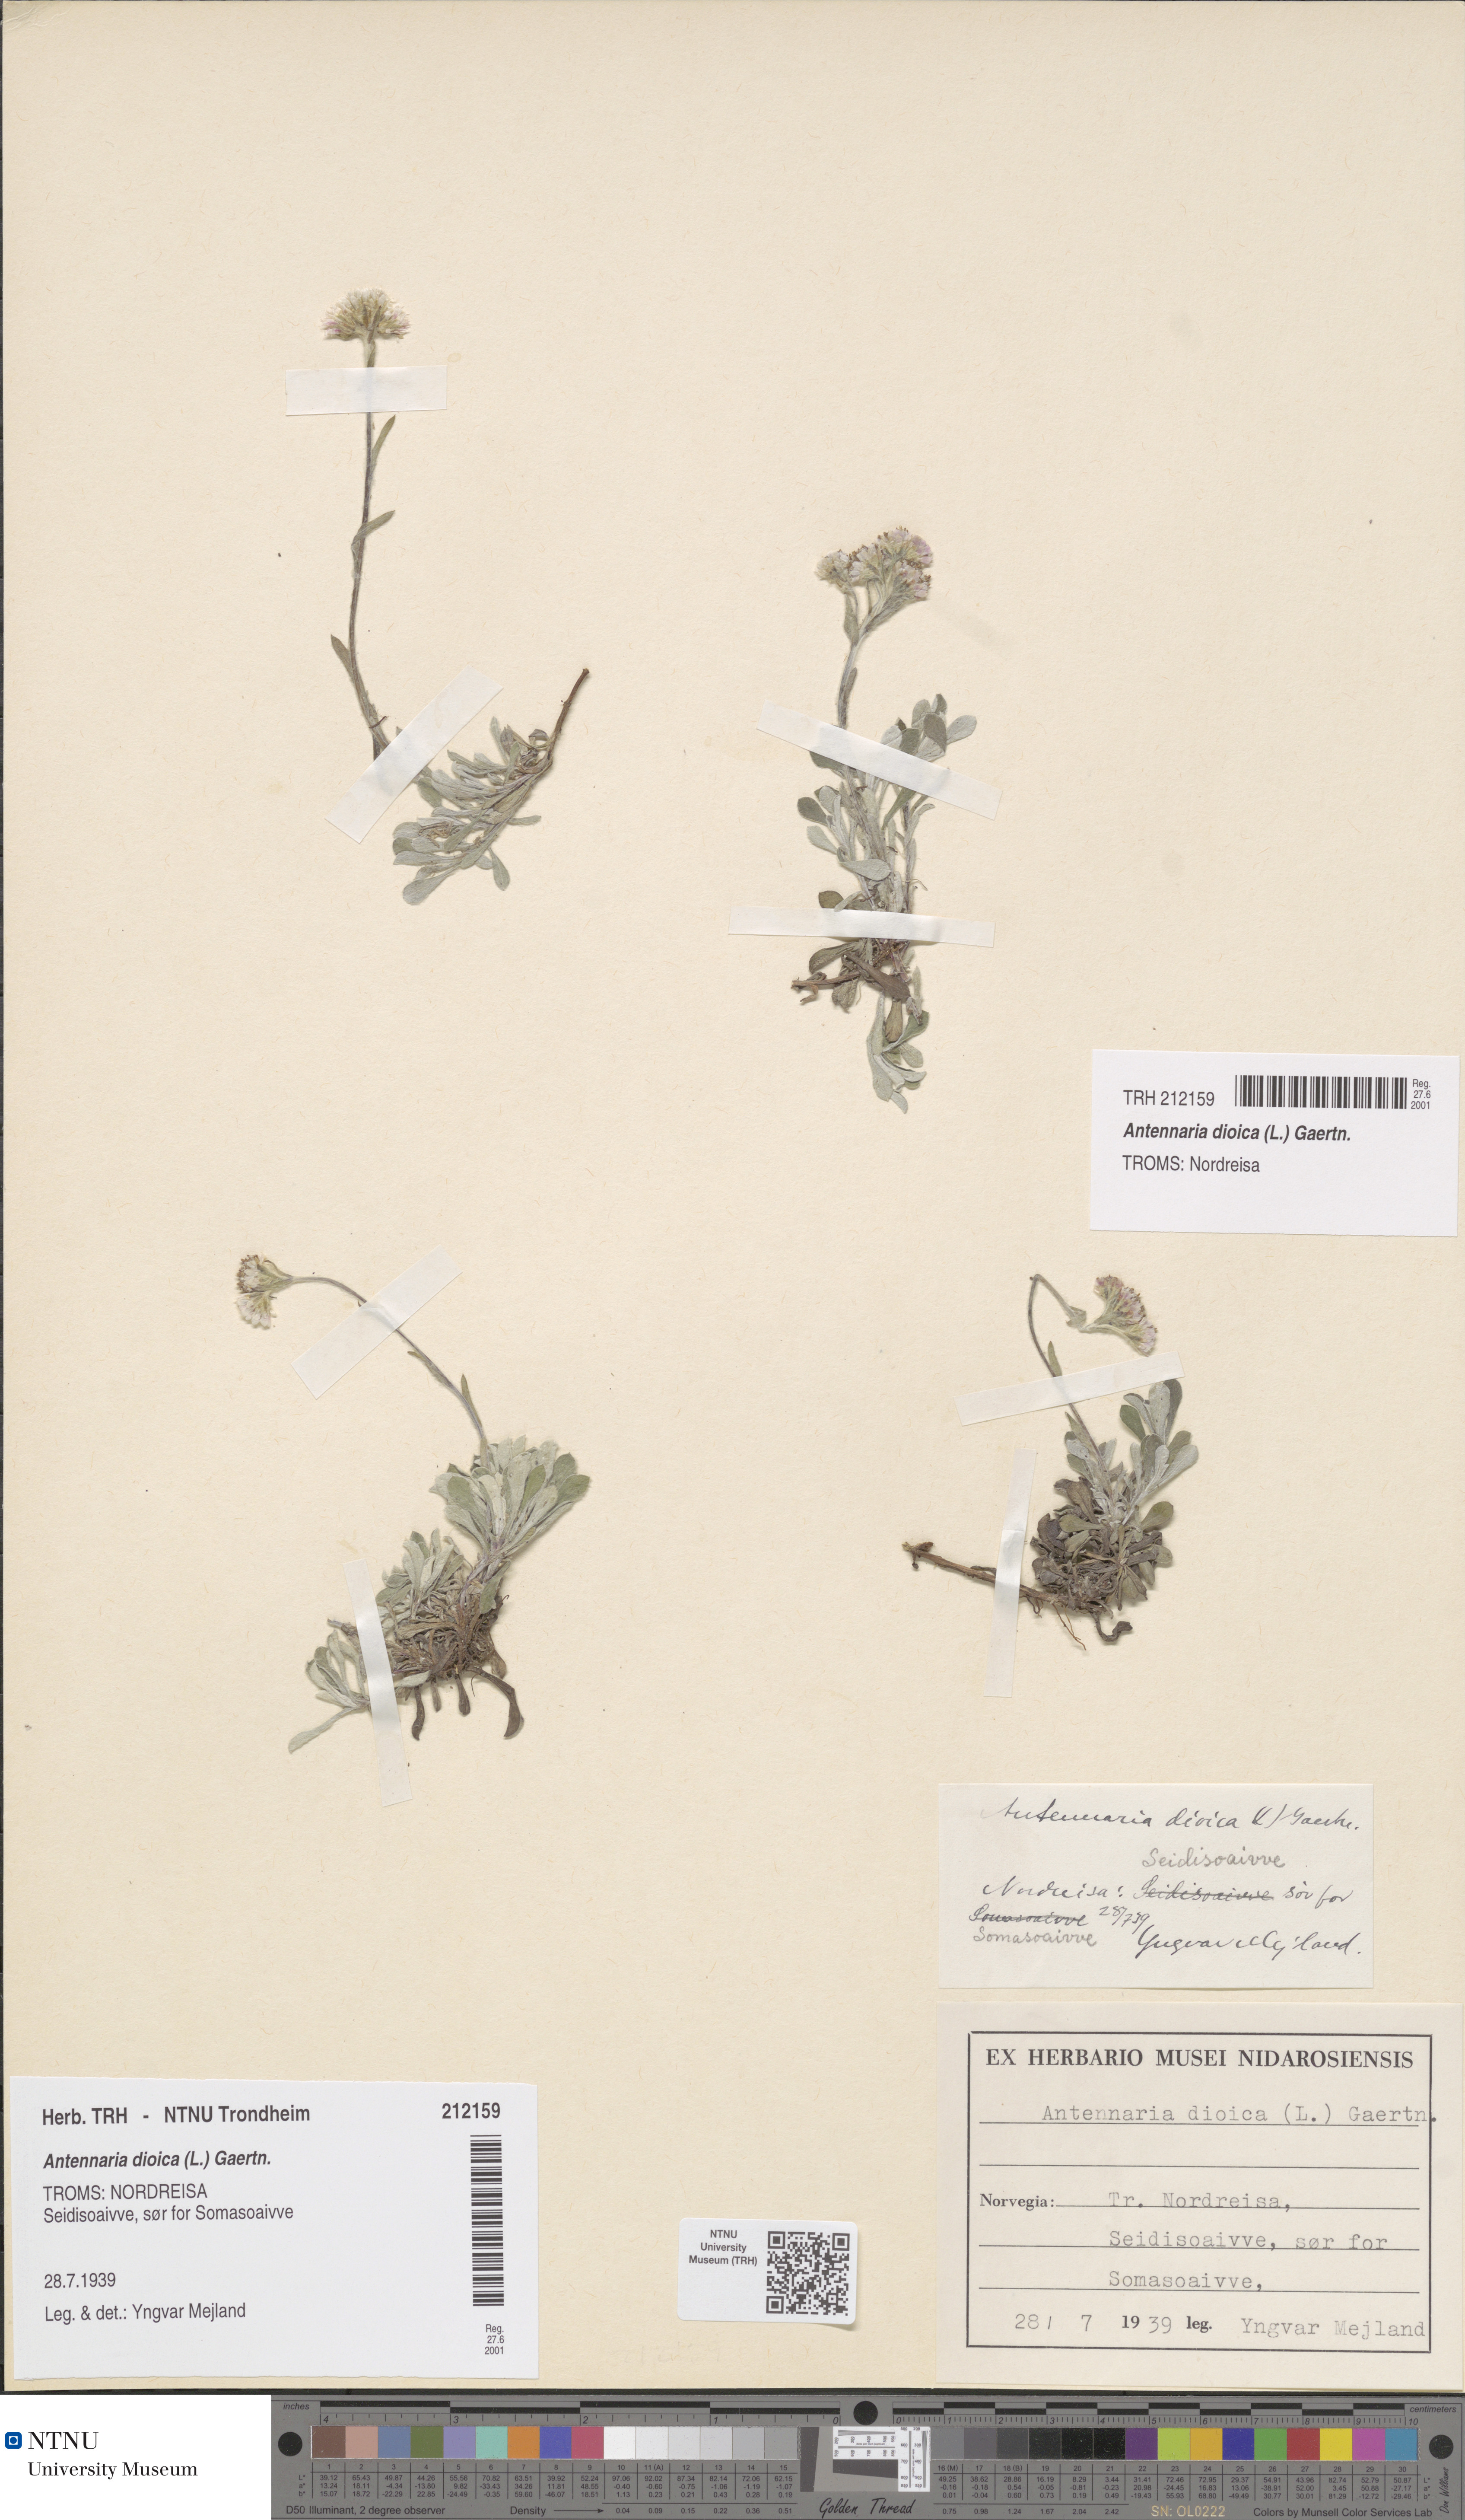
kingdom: Plantae
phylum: Tracheophyta
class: Magnoliopsida
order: Asterales
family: Asteraceae
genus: Antennaria
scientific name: Antennaria dioica
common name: Mountain everlasting
